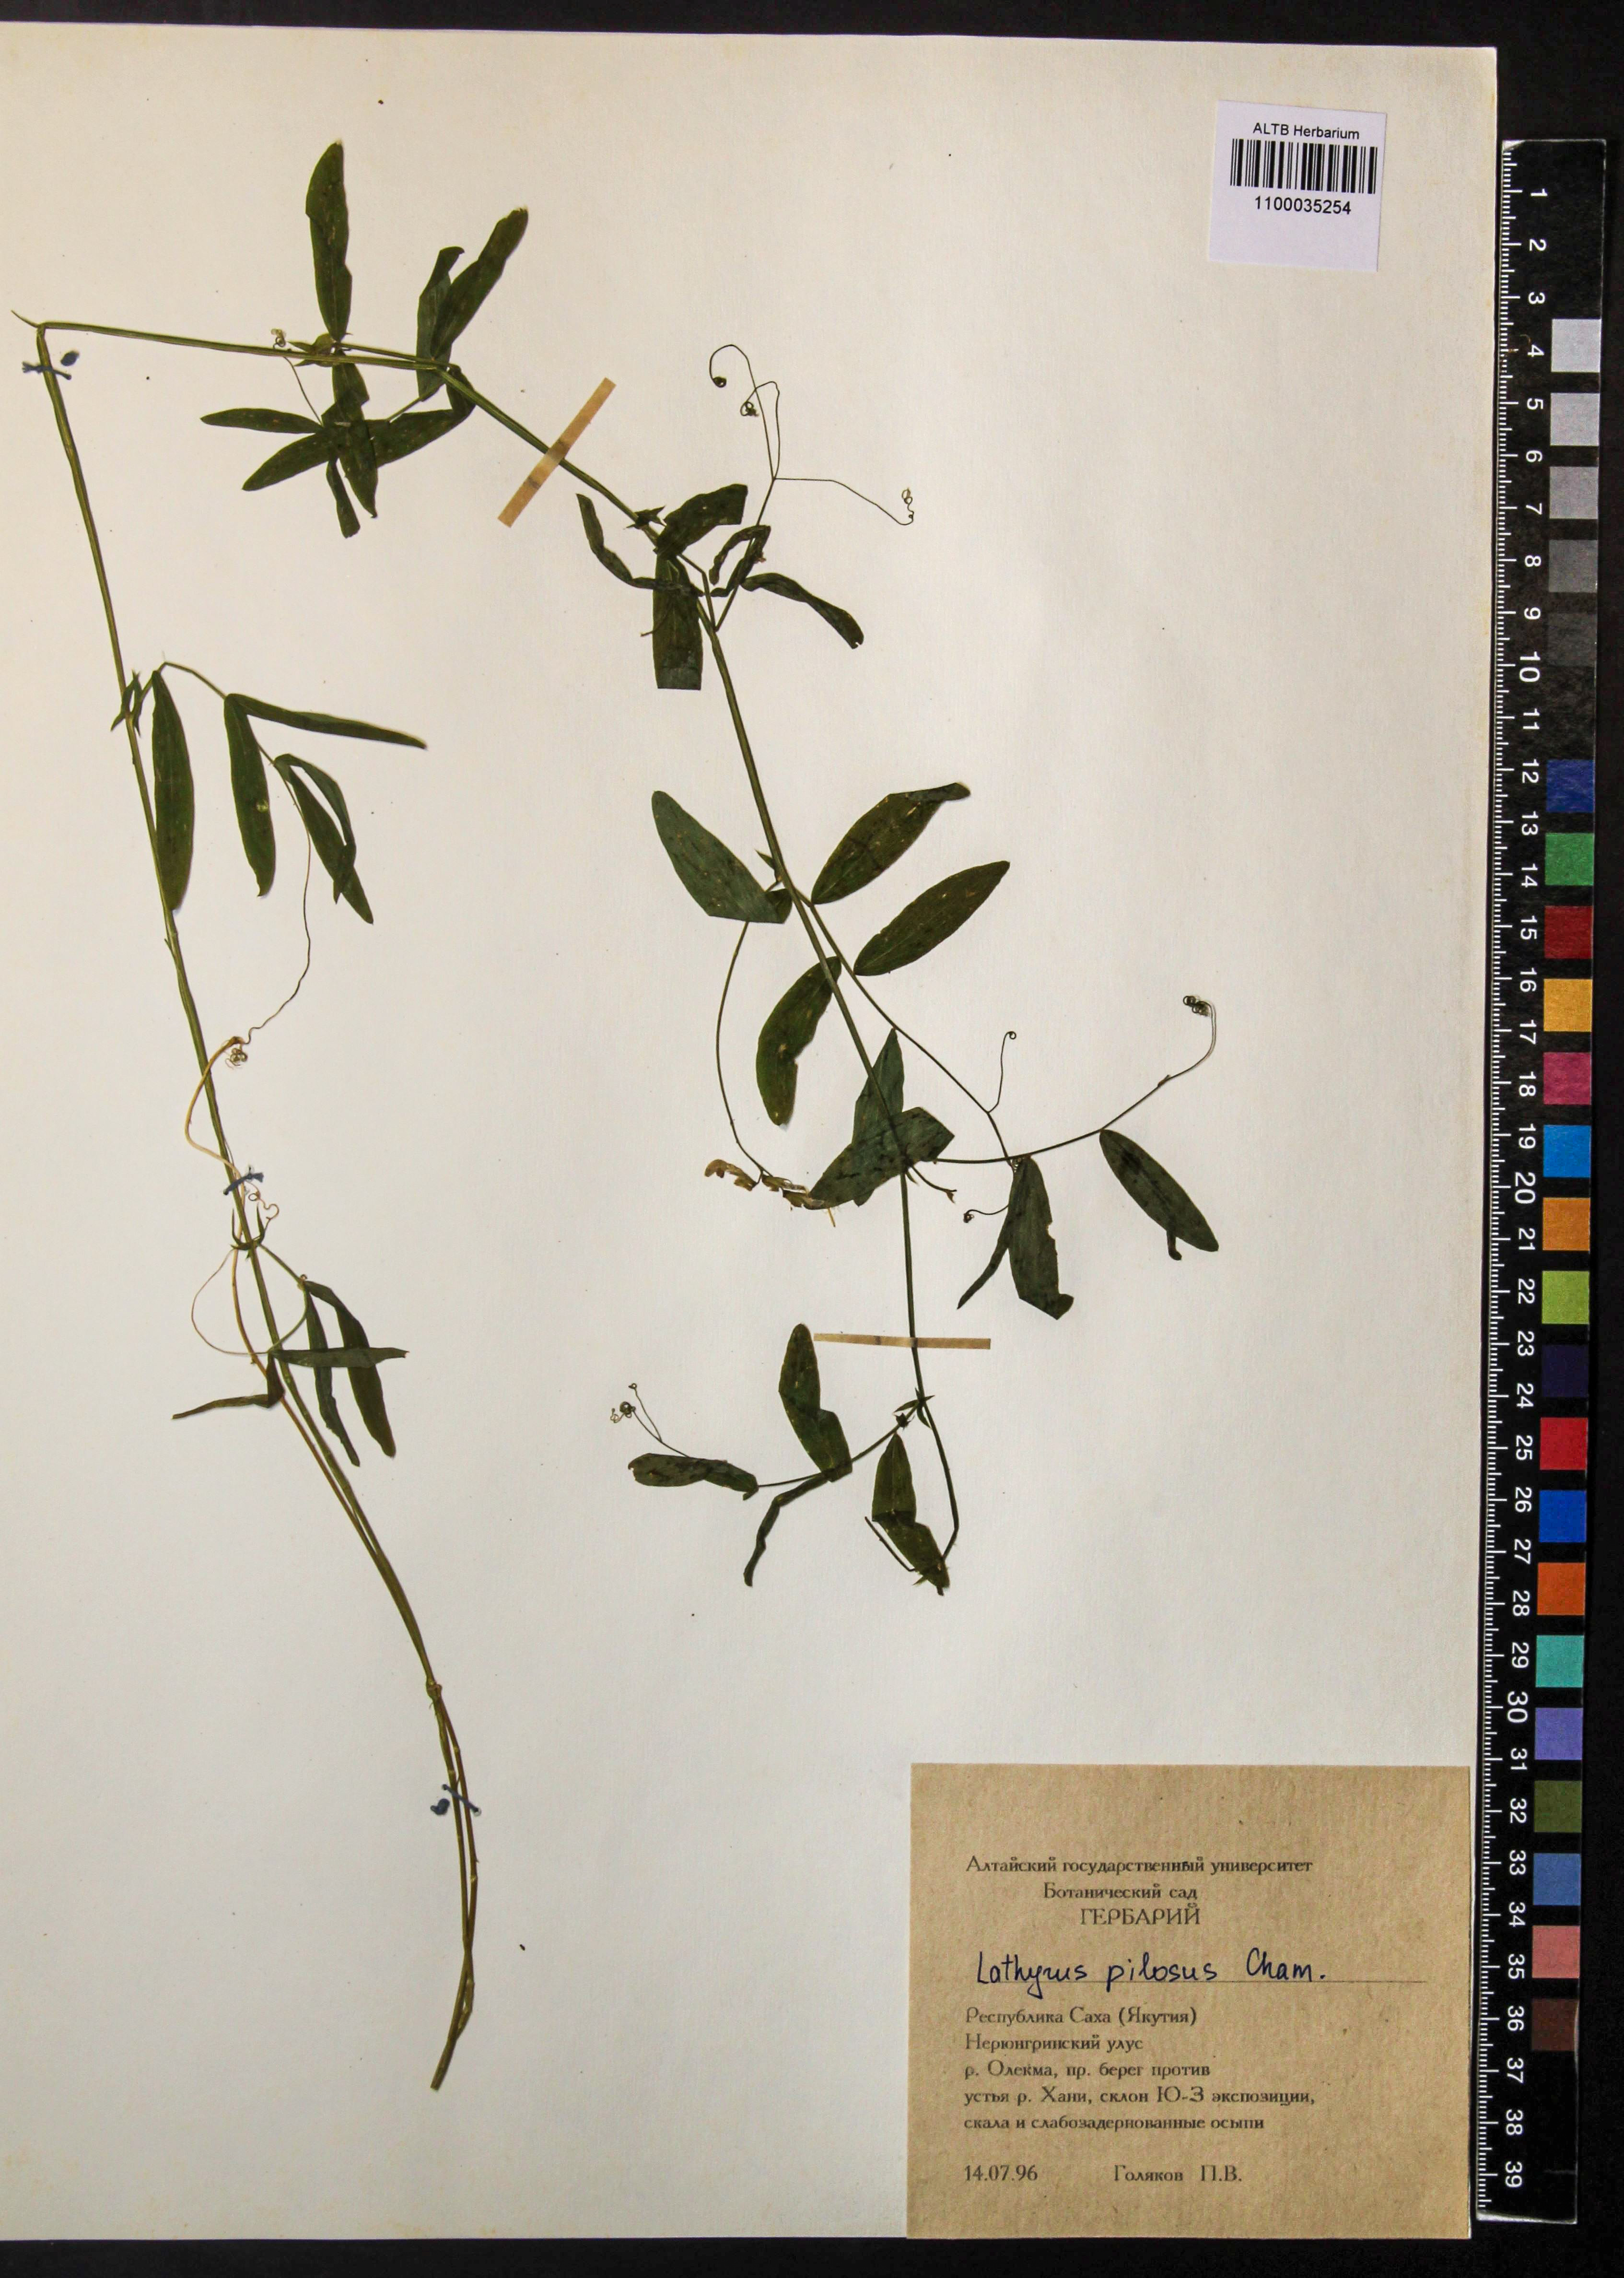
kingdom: Plantae
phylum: Tracheophyta
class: Magnoliopsida
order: Fabales
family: Fabaceae
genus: Lathyrus
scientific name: Lathyrus palustris
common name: Marsh pea
